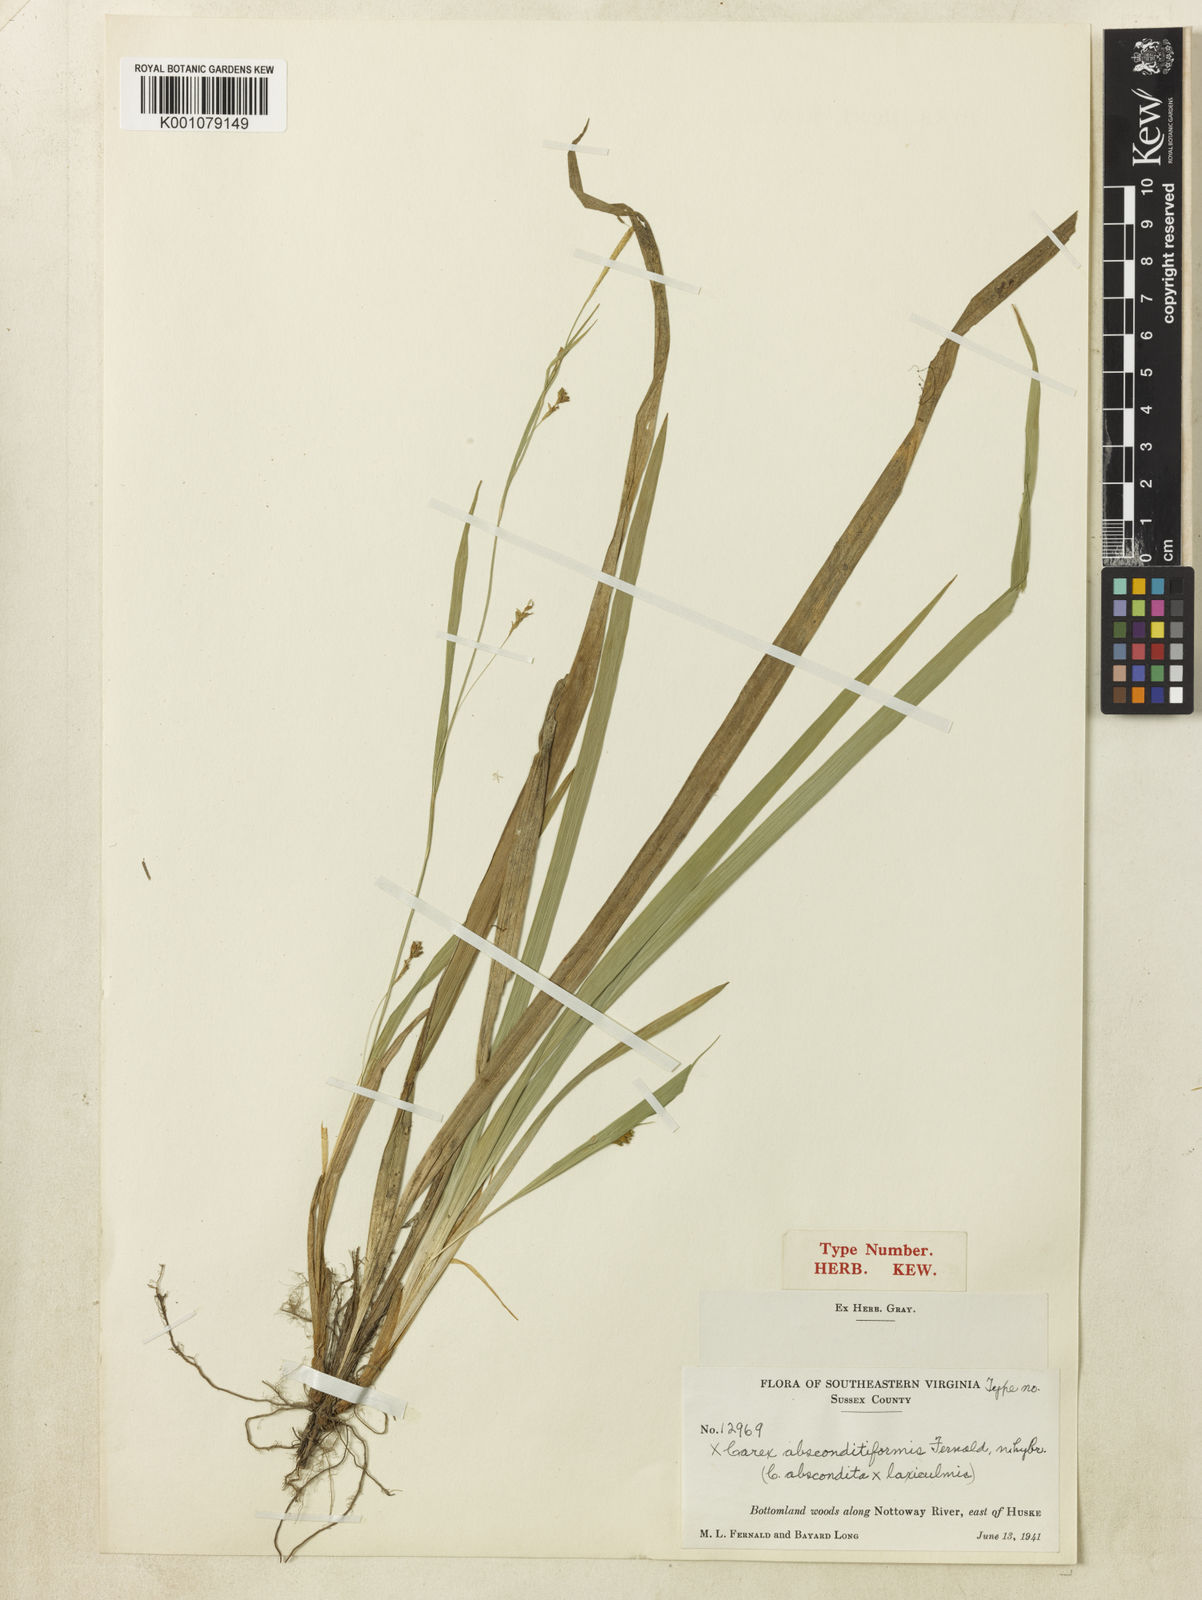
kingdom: Plantae
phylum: Tracheophyta
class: Liliopsida
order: Poales
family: Cyperaceae
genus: Carex
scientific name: Carex laxiculmis
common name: Spreading sedge
